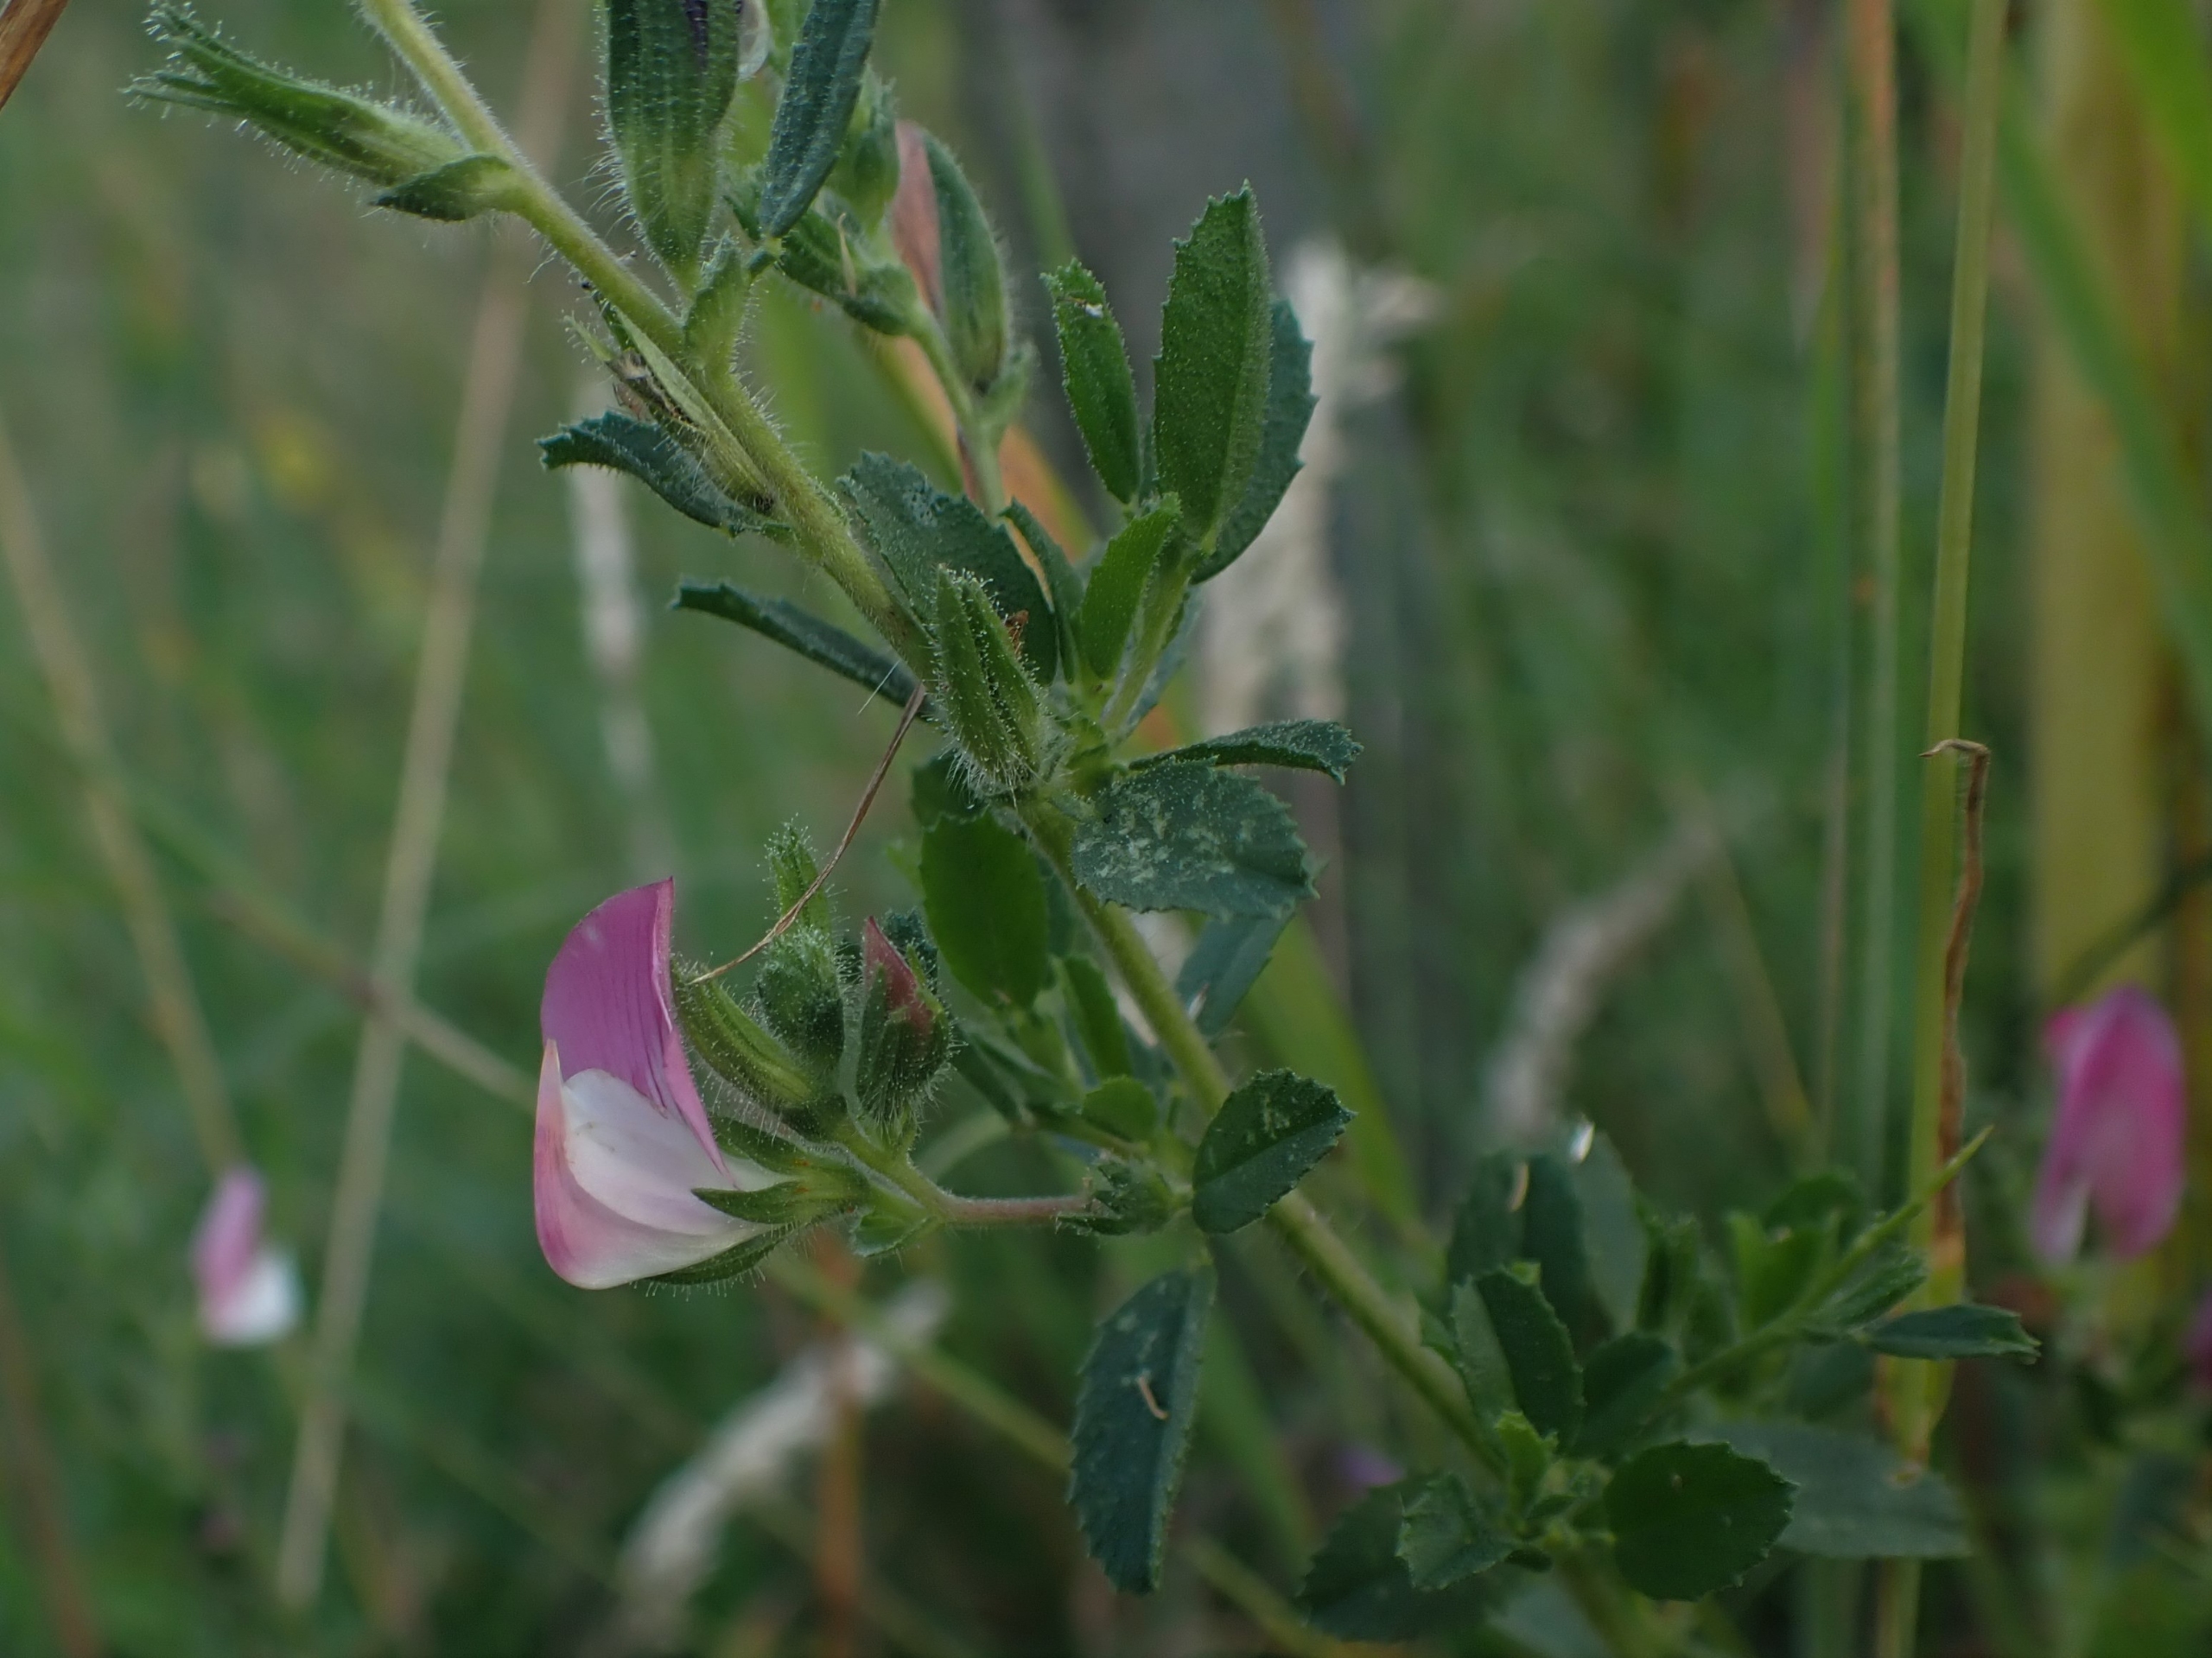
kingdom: Plantae
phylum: Tracheophyta
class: Magnoliopsida
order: Fabales
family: Fabaceae
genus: Ononis
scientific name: Ononis spinosa
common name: Mark-krageklo
